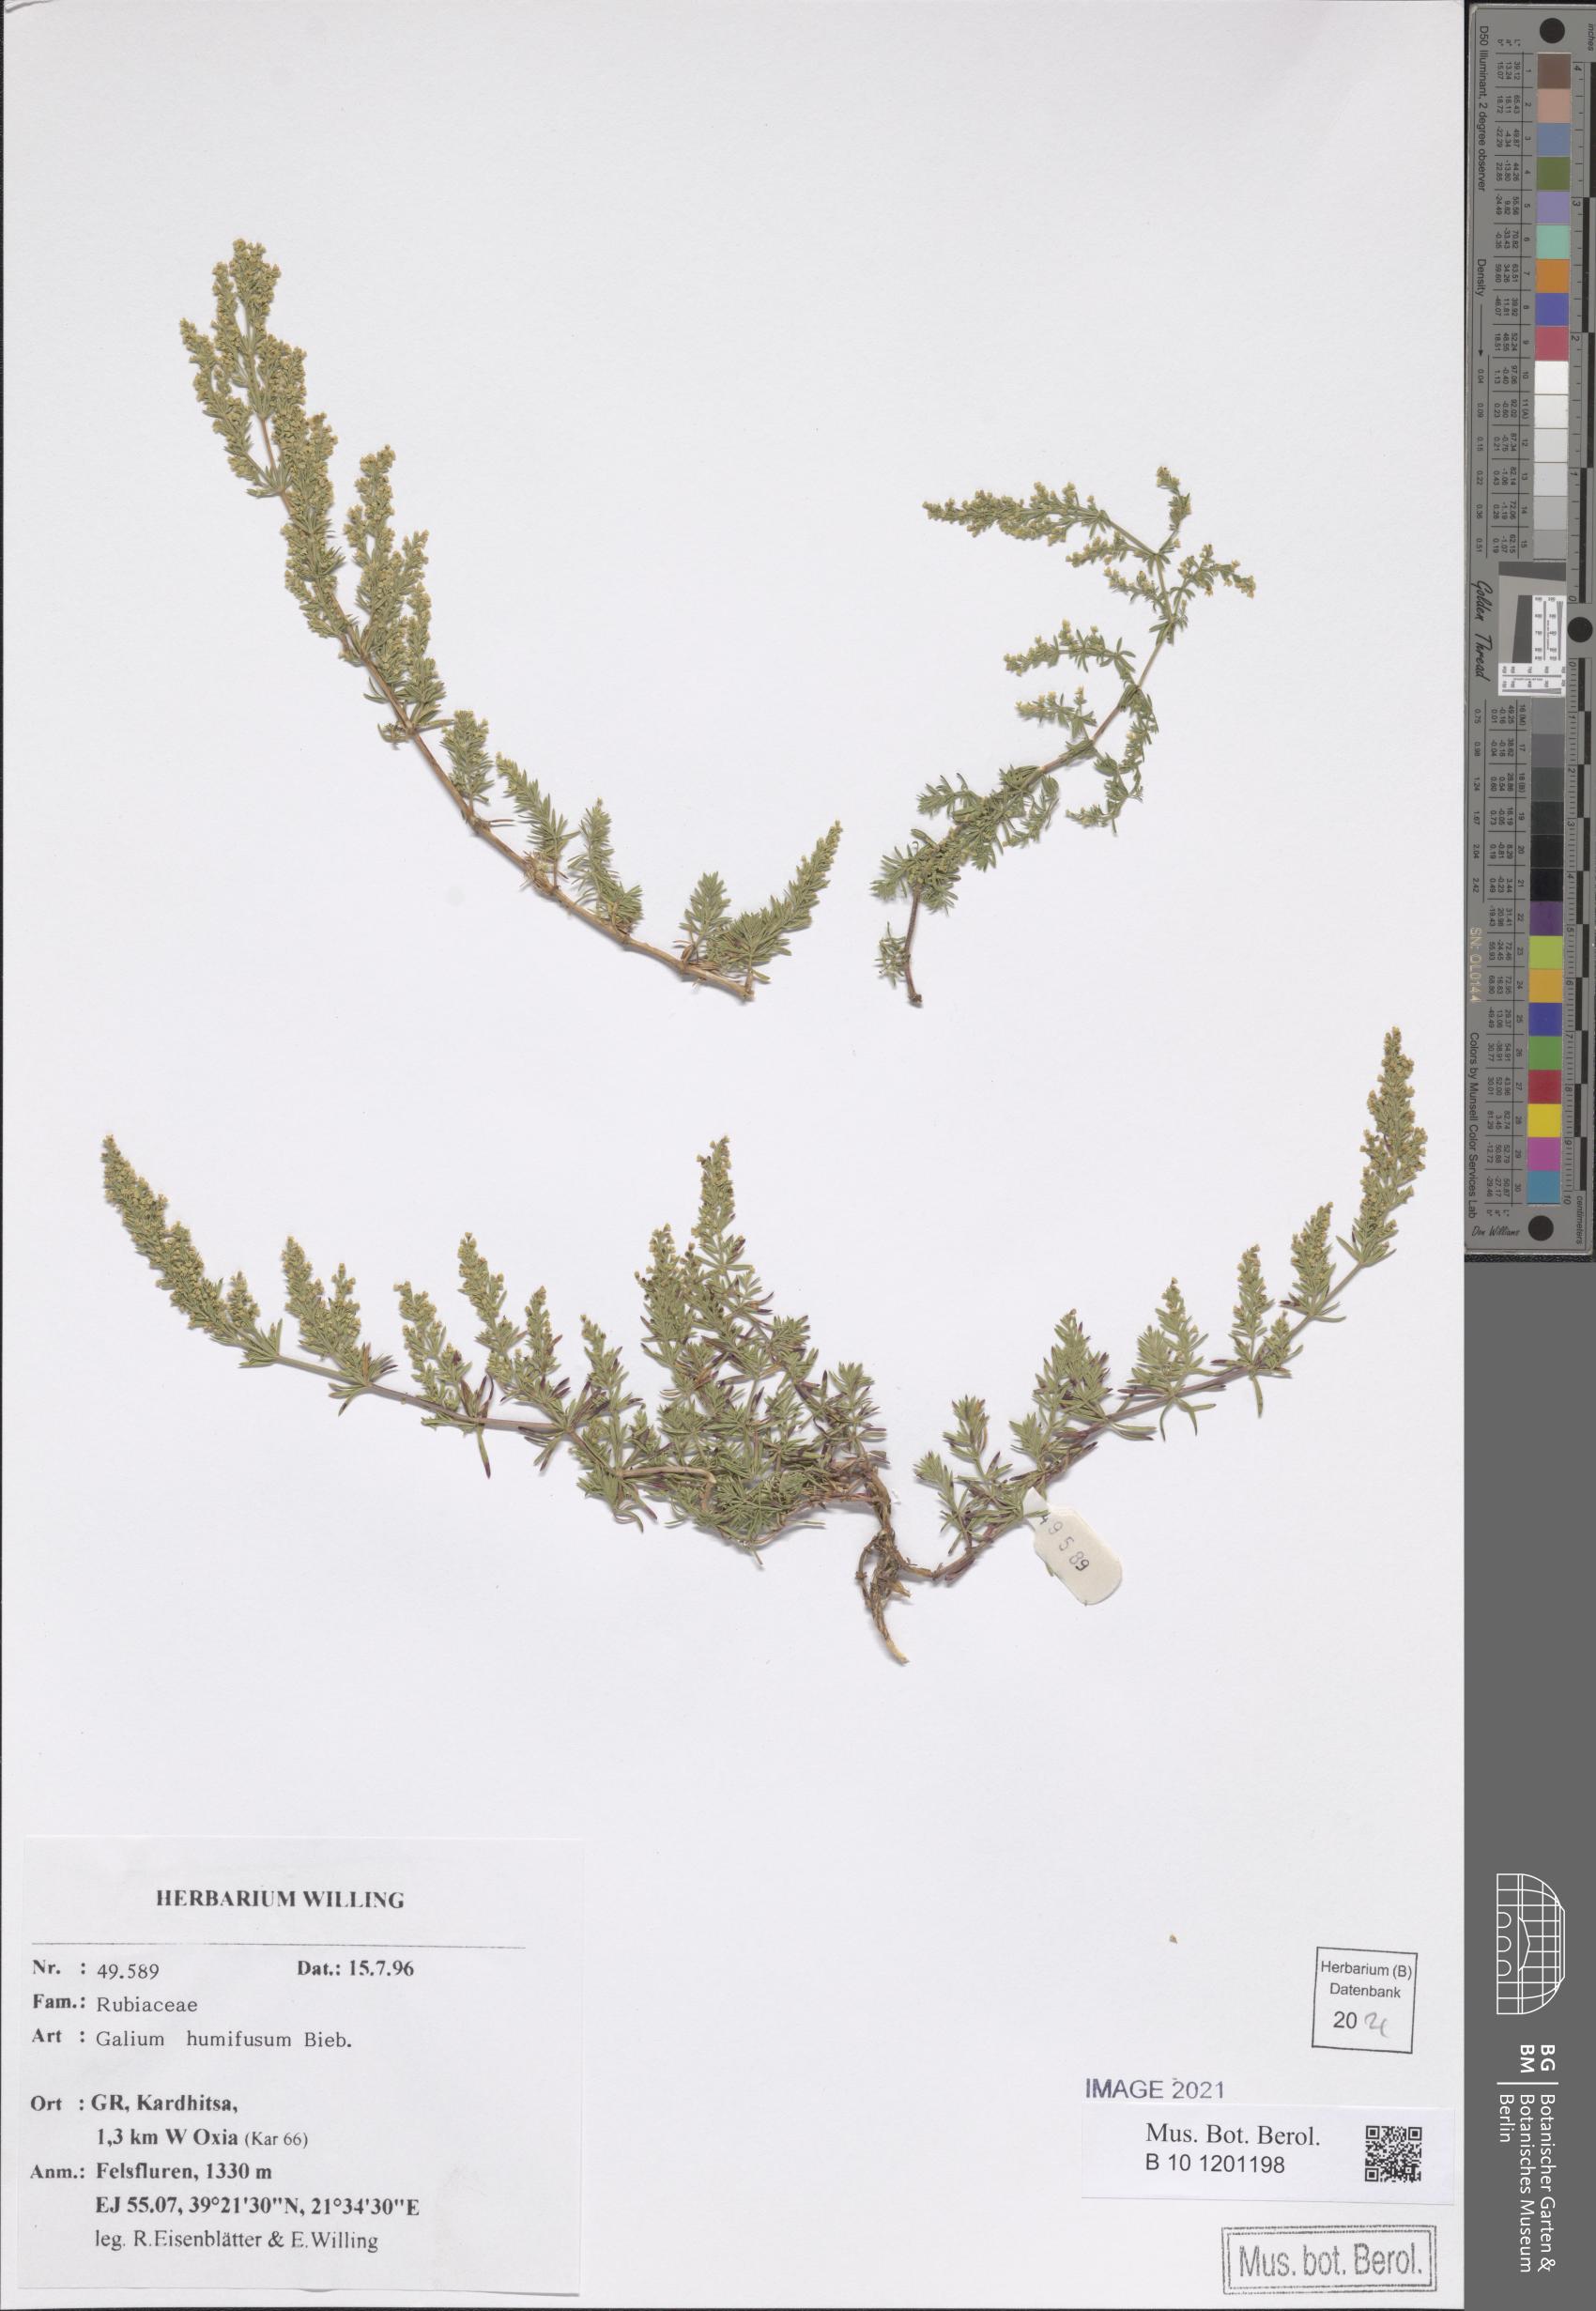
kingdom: Plantae
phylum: Tracheophyta
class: Magnoliopsida
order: Gentianales
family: Rubiaceae
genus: Galium
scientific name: Galium humifusum
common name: Spreading bedstraw
